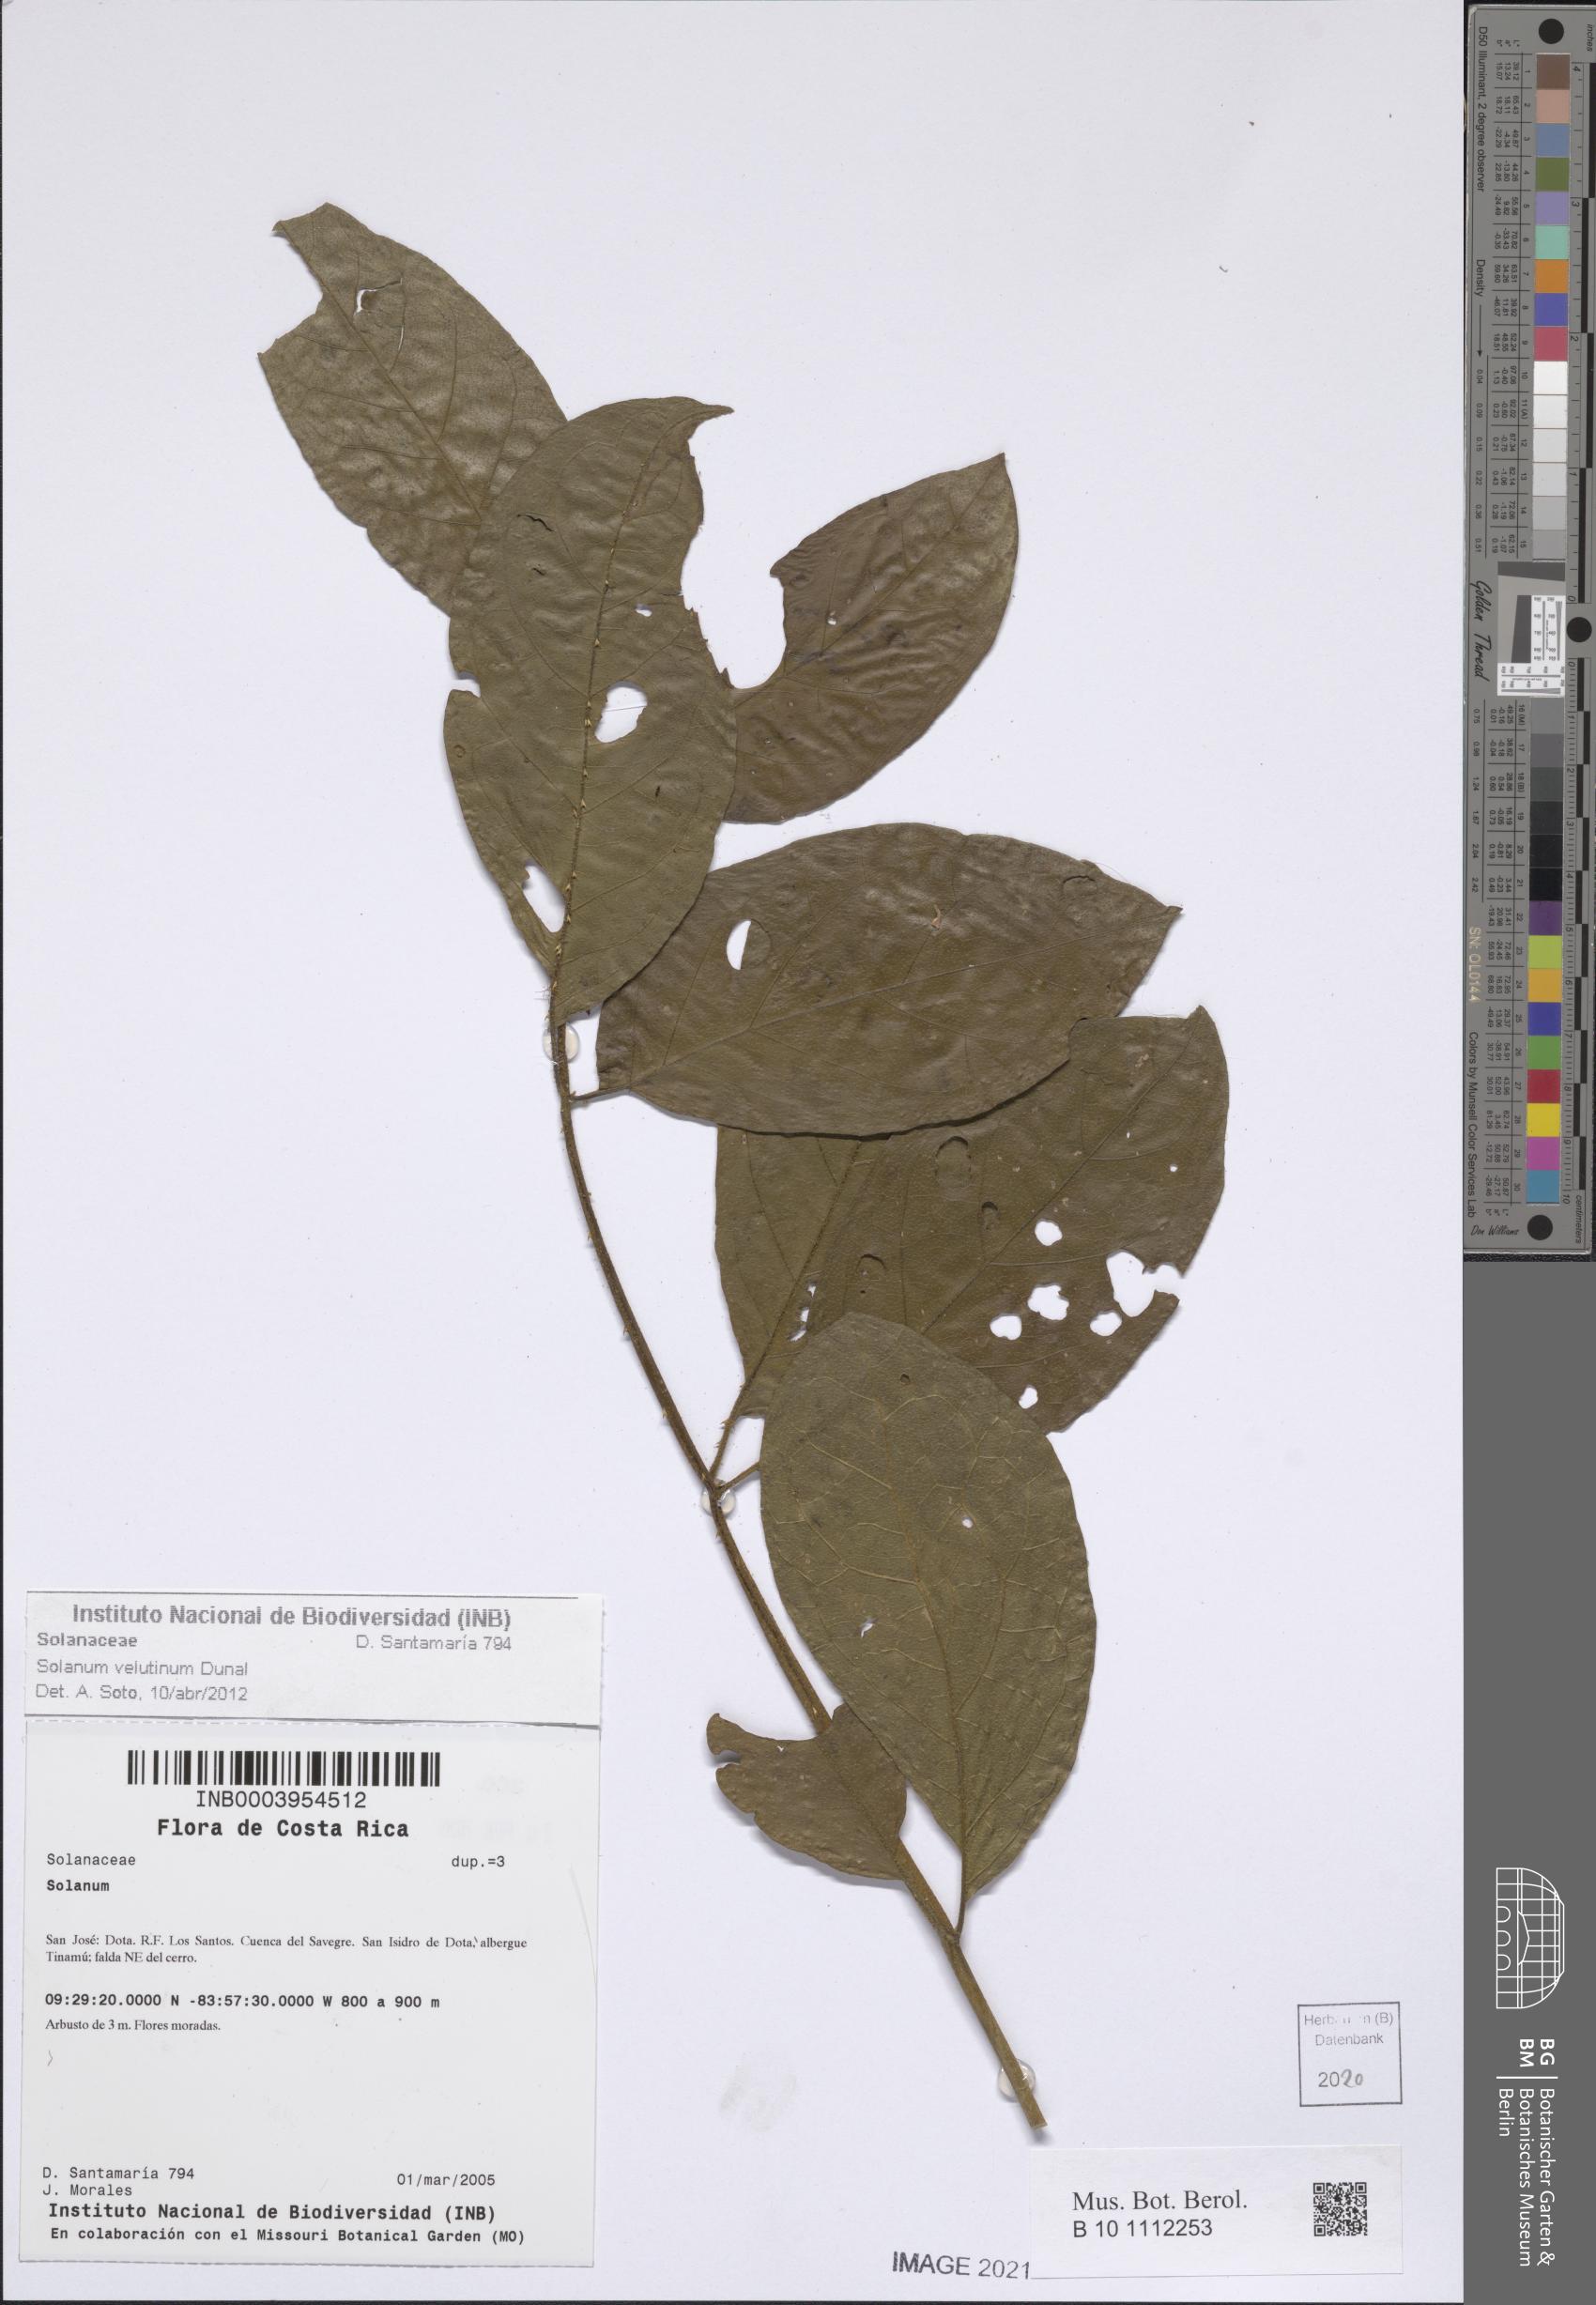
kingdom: Plantae
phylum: Tracheophyta
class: Magnoliopsida
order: Solanales
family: Solanaceae
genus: Solanum
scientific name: Solanum velutinum
